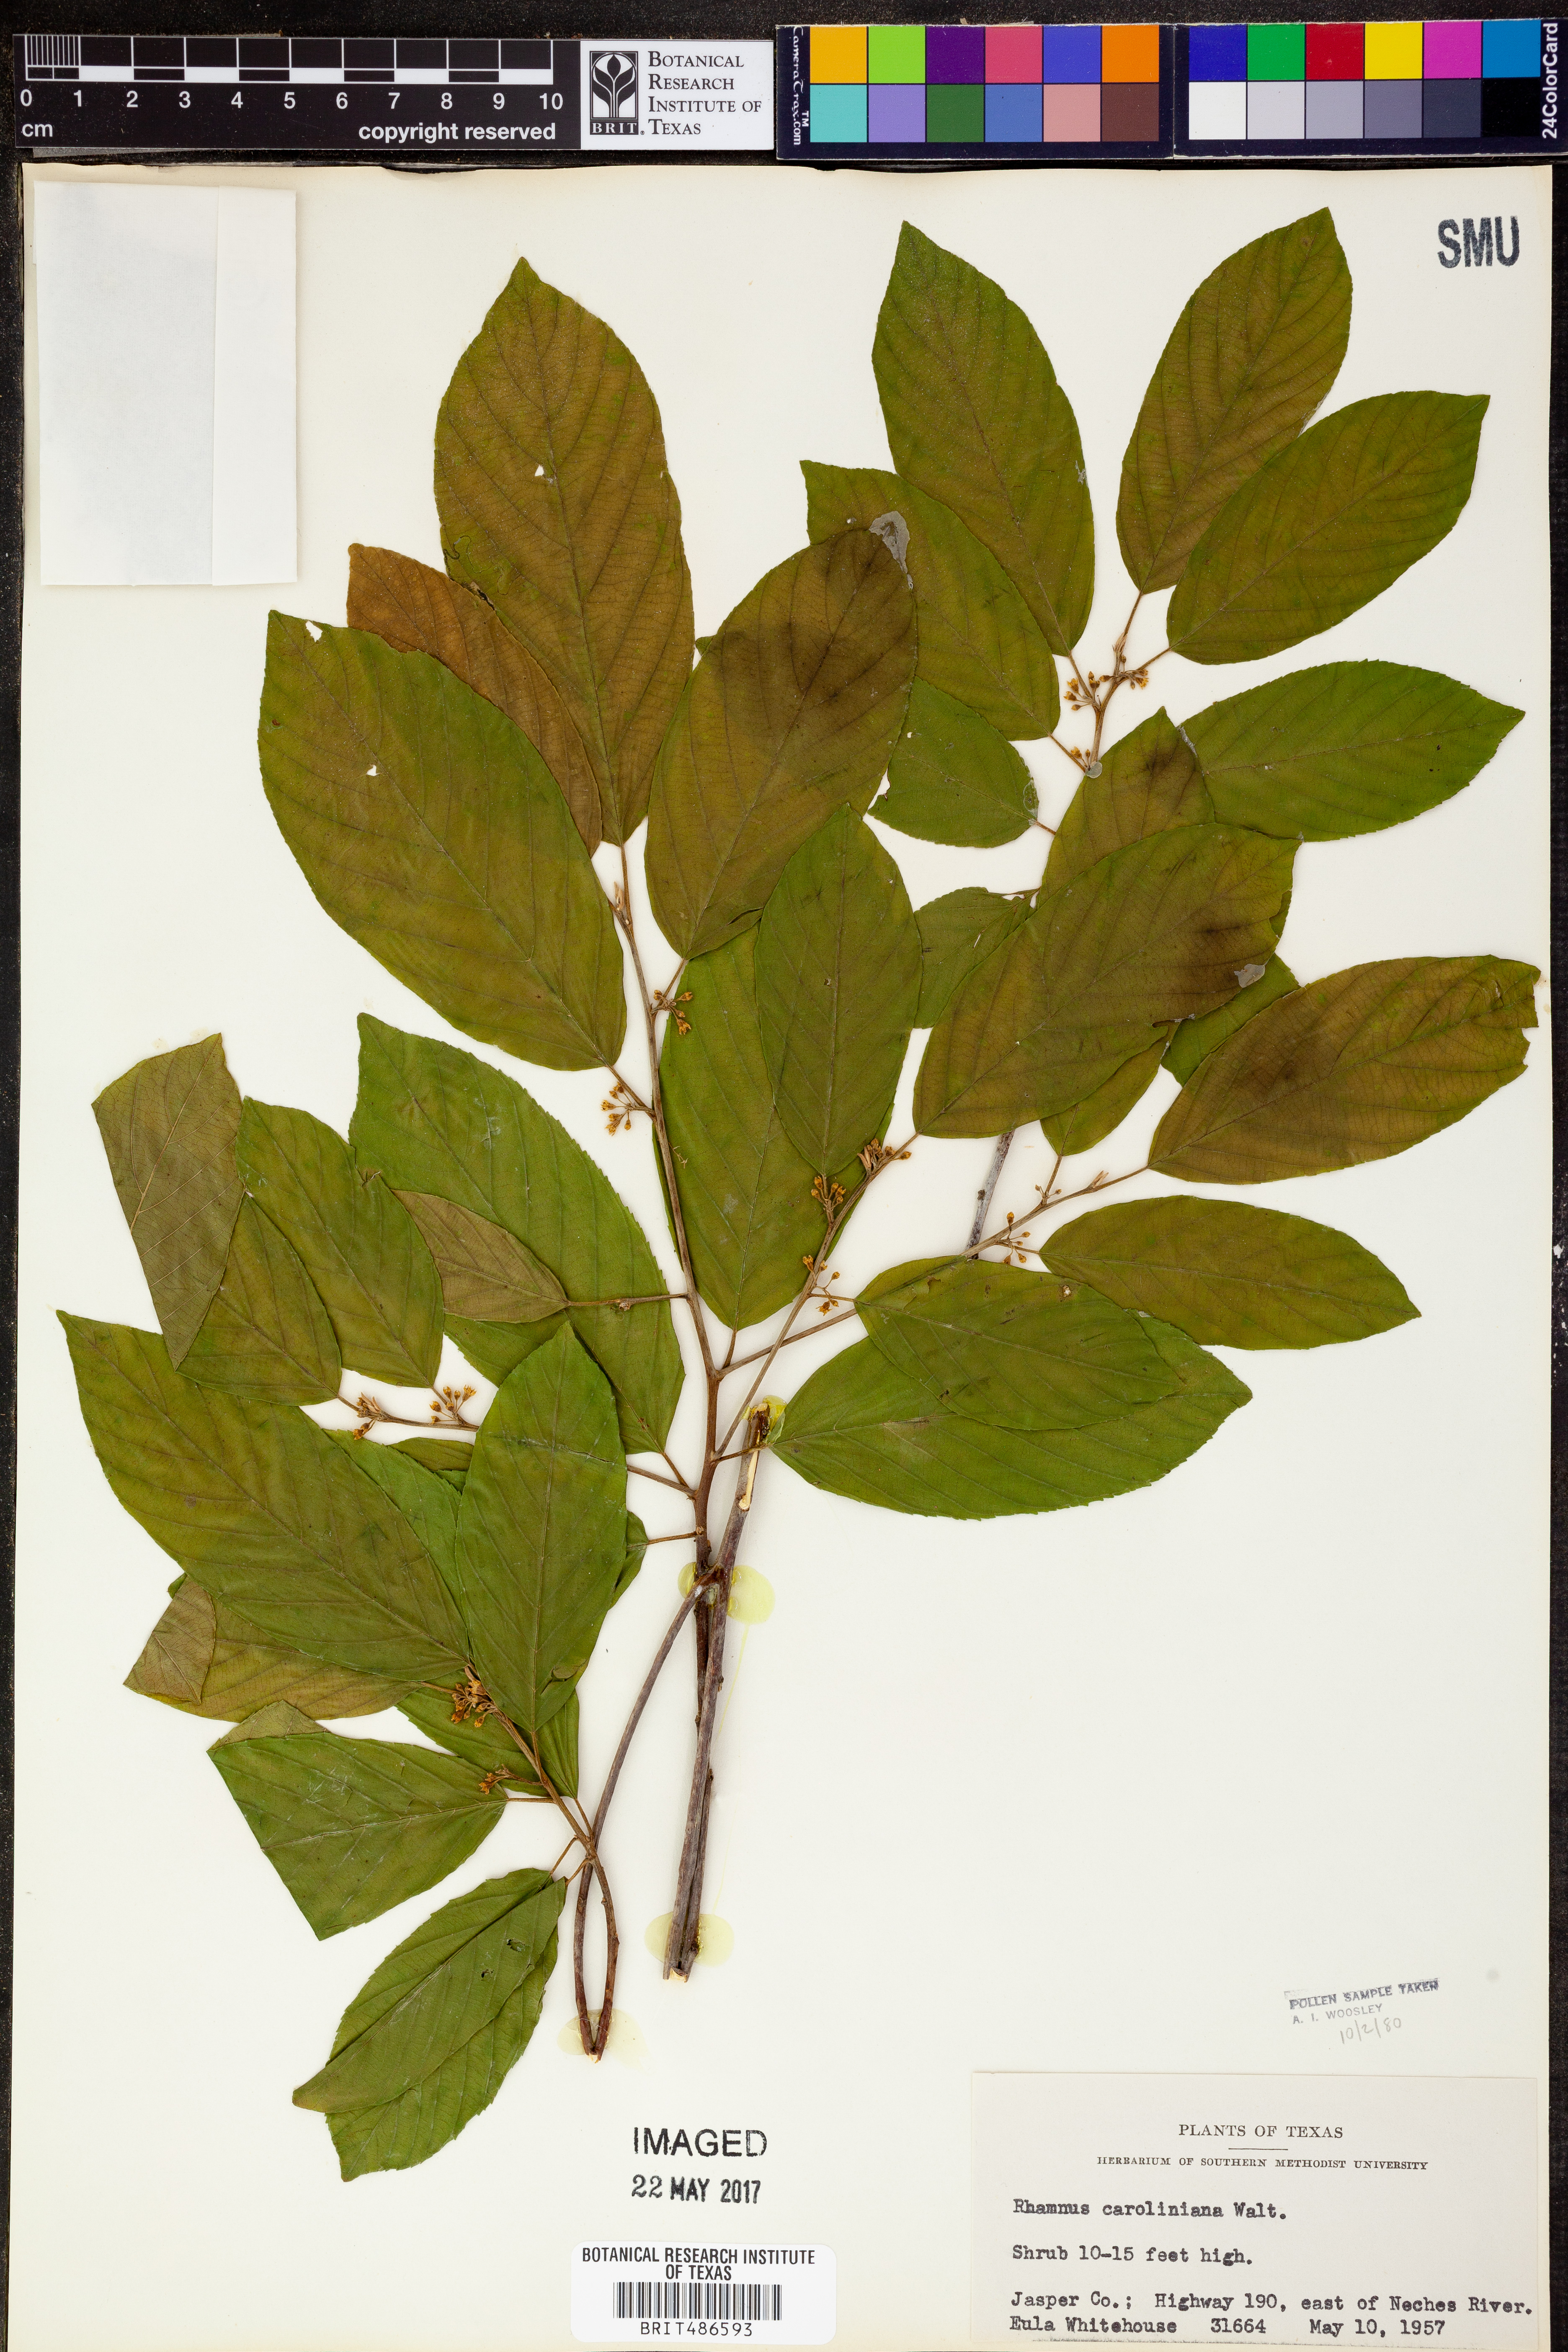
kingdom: Plantae
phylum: Tracheophyta
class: Magnoliopsida
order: Rosales
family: Rhamnaceae
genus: Frangula
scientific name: Frangula caroliniana
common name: Carolina buckthorn
